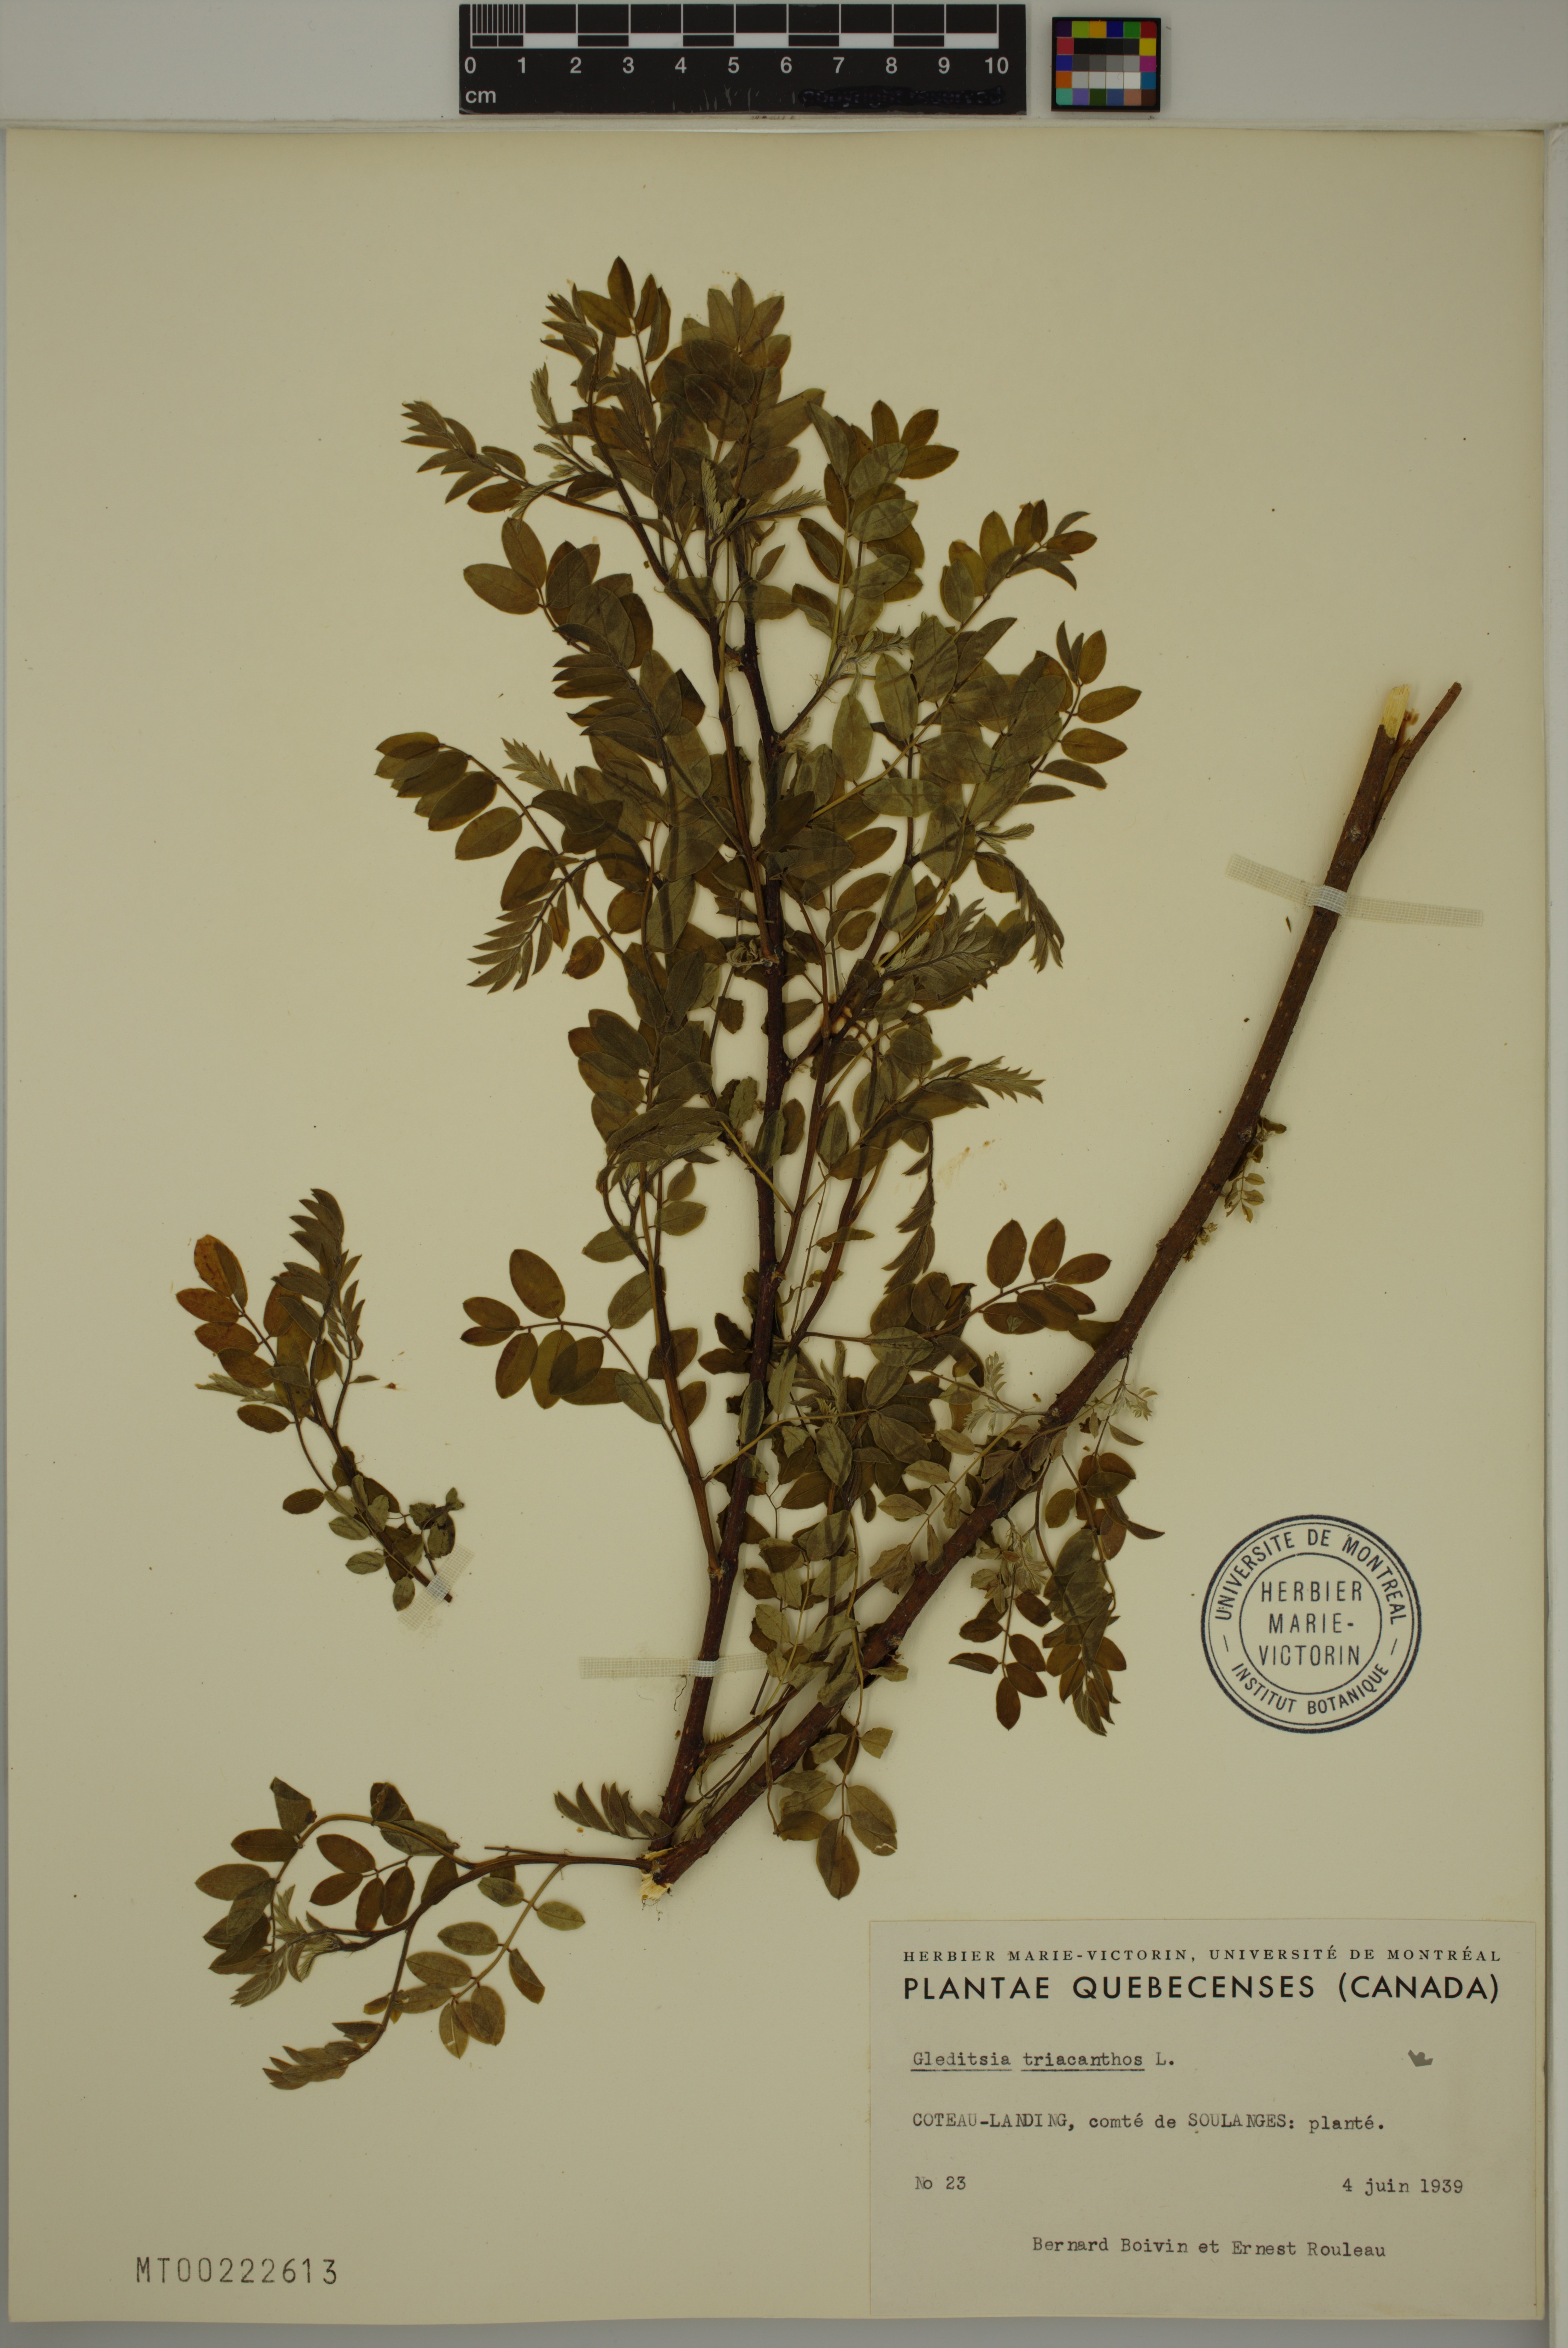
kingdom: Plantae
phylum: Tracheophyta
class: Magnoliopsida
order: Fabales
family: Fabaceae
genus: Gleditsia
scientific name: Gleditsia triacanthos
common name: Common honeylocust
